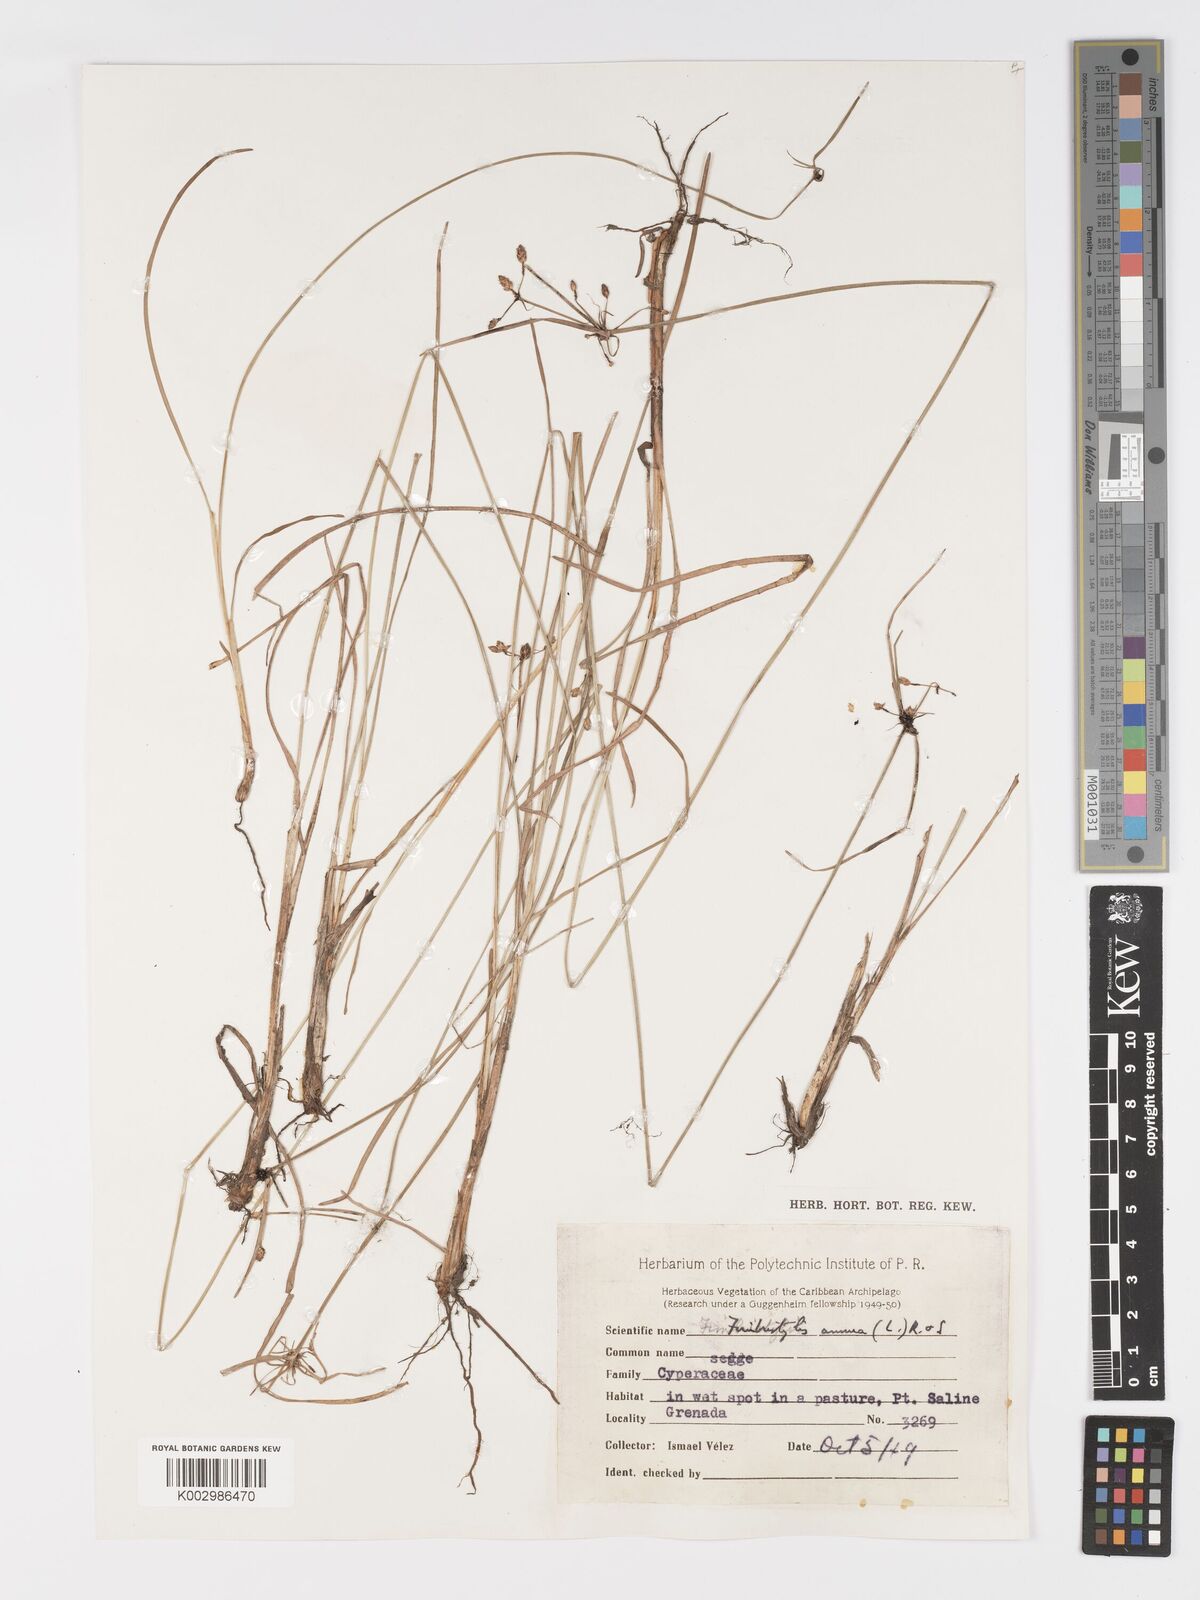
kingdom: Plantae
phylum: Tracheophyta
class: Liliopsida
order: Poales
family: Cyperaceae
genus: Fimbristylis
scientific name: Fimbristylis dichotoma
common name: Forked fimbry
